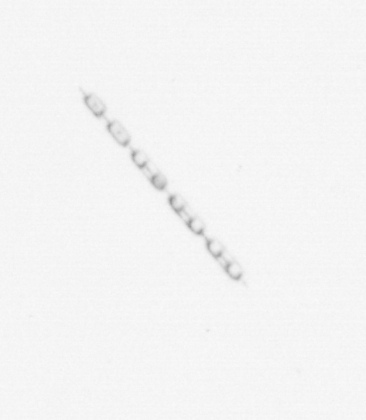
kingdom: Chromista
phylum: Ochrophyta
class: Bacillariophyceae
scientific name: Bacillariophyceae
